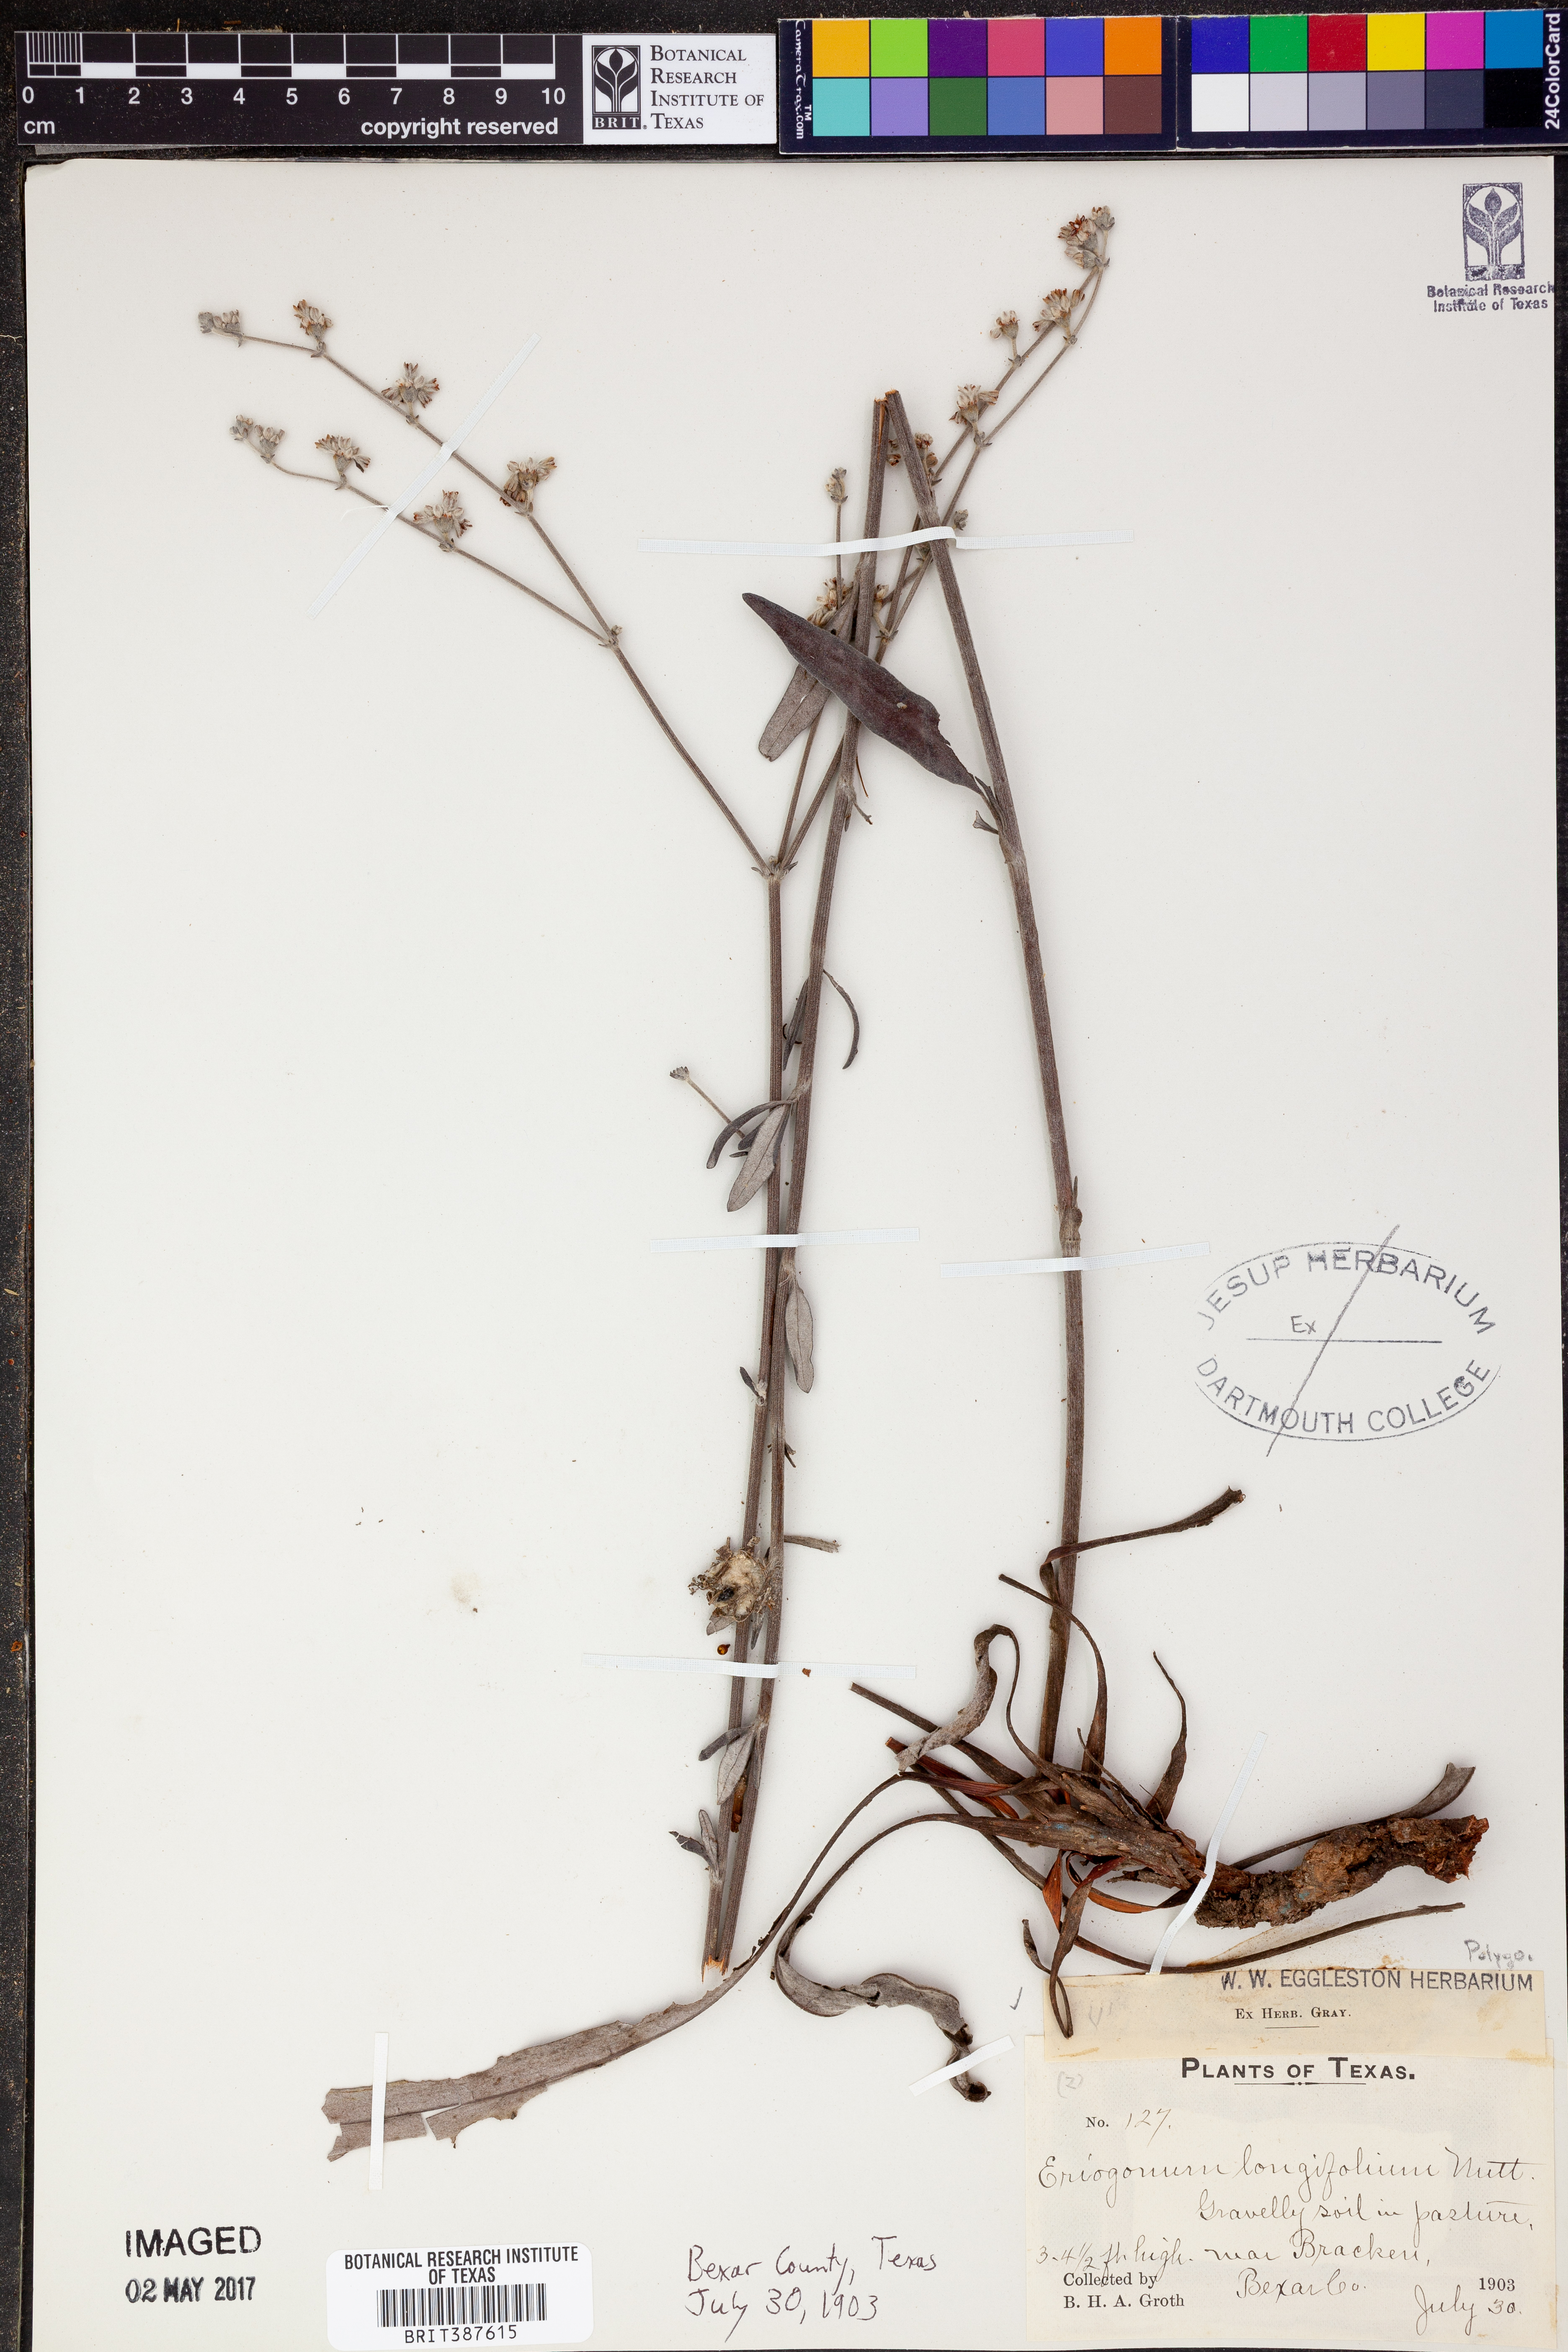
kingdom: Plantae
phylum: Tracheophyta
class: Magnoliopsida
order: Caryophyllales
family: Polygonaceae
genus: Eriogonum
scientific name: Eriogonum longifolium
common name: Longleaf wild buckwheat
